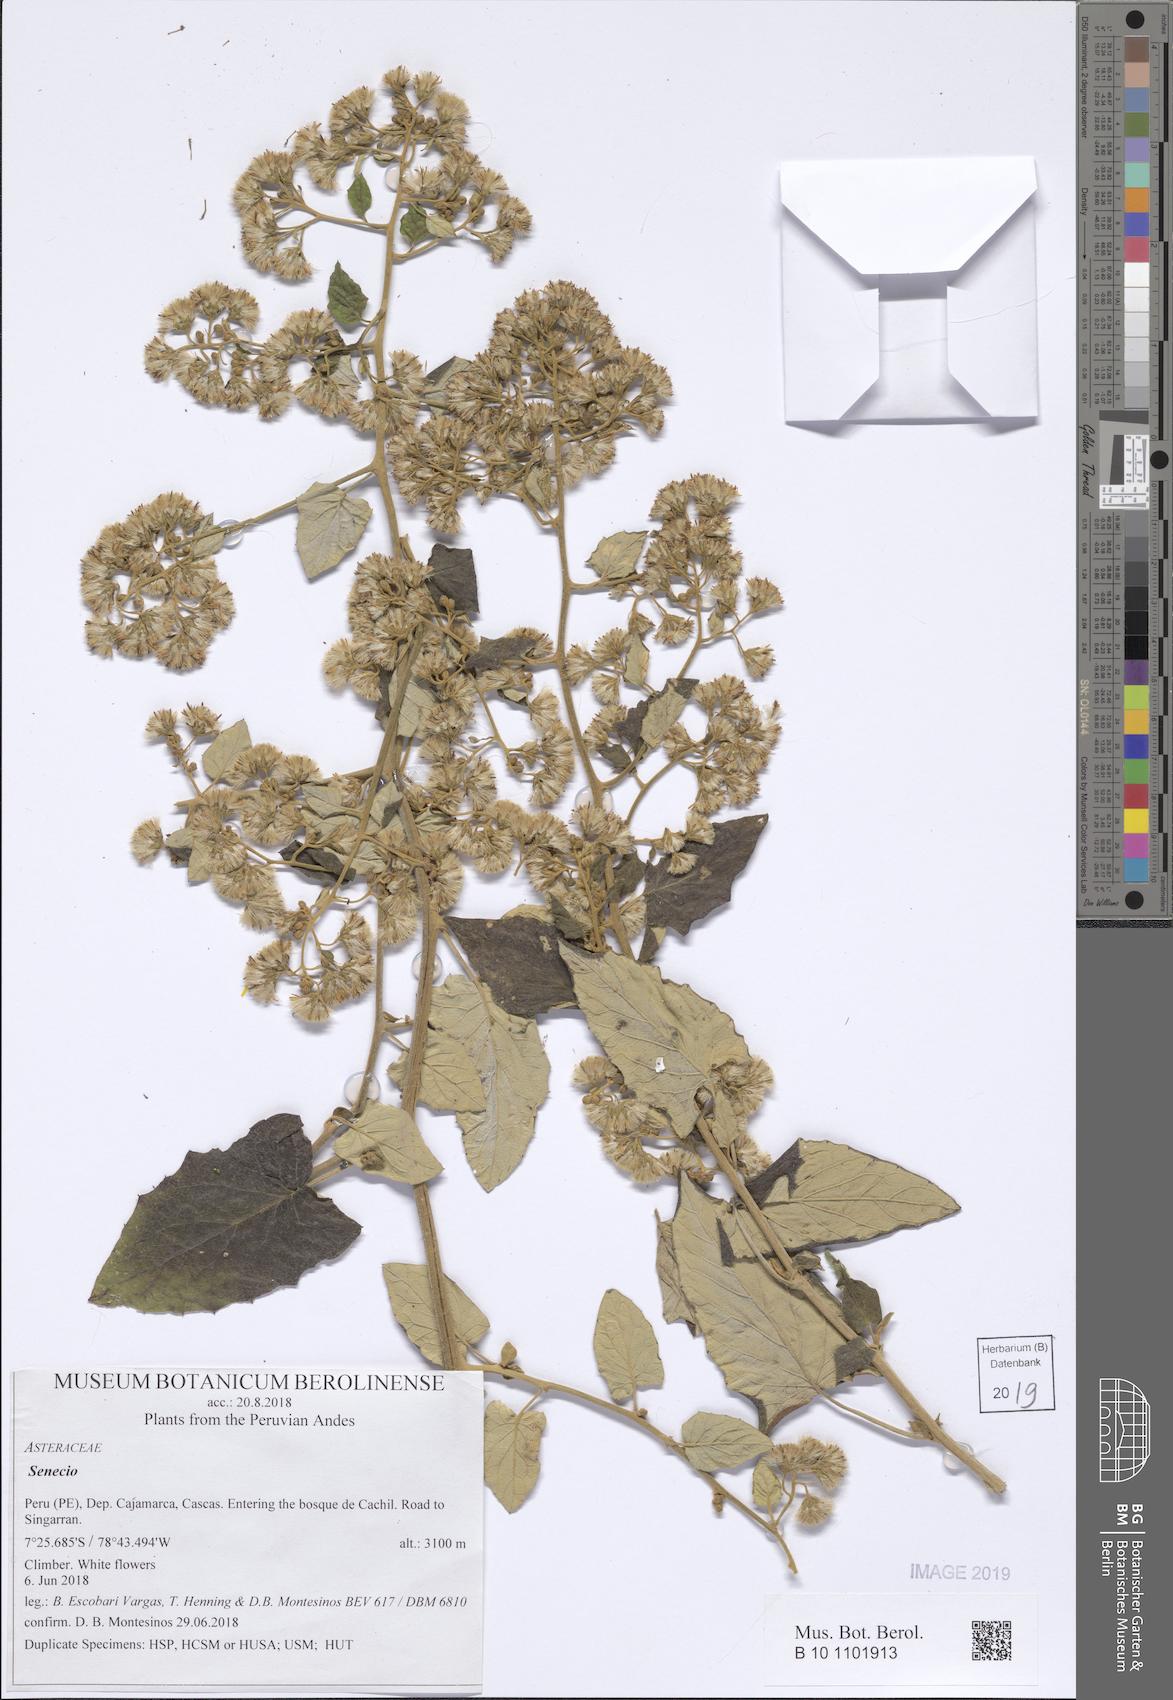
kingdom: Plantae
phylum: Tracheophyta
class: Magnoliopsida
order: Asterales
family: Asteraceae
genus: Senecio
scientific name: Senecio axillifoliatus
